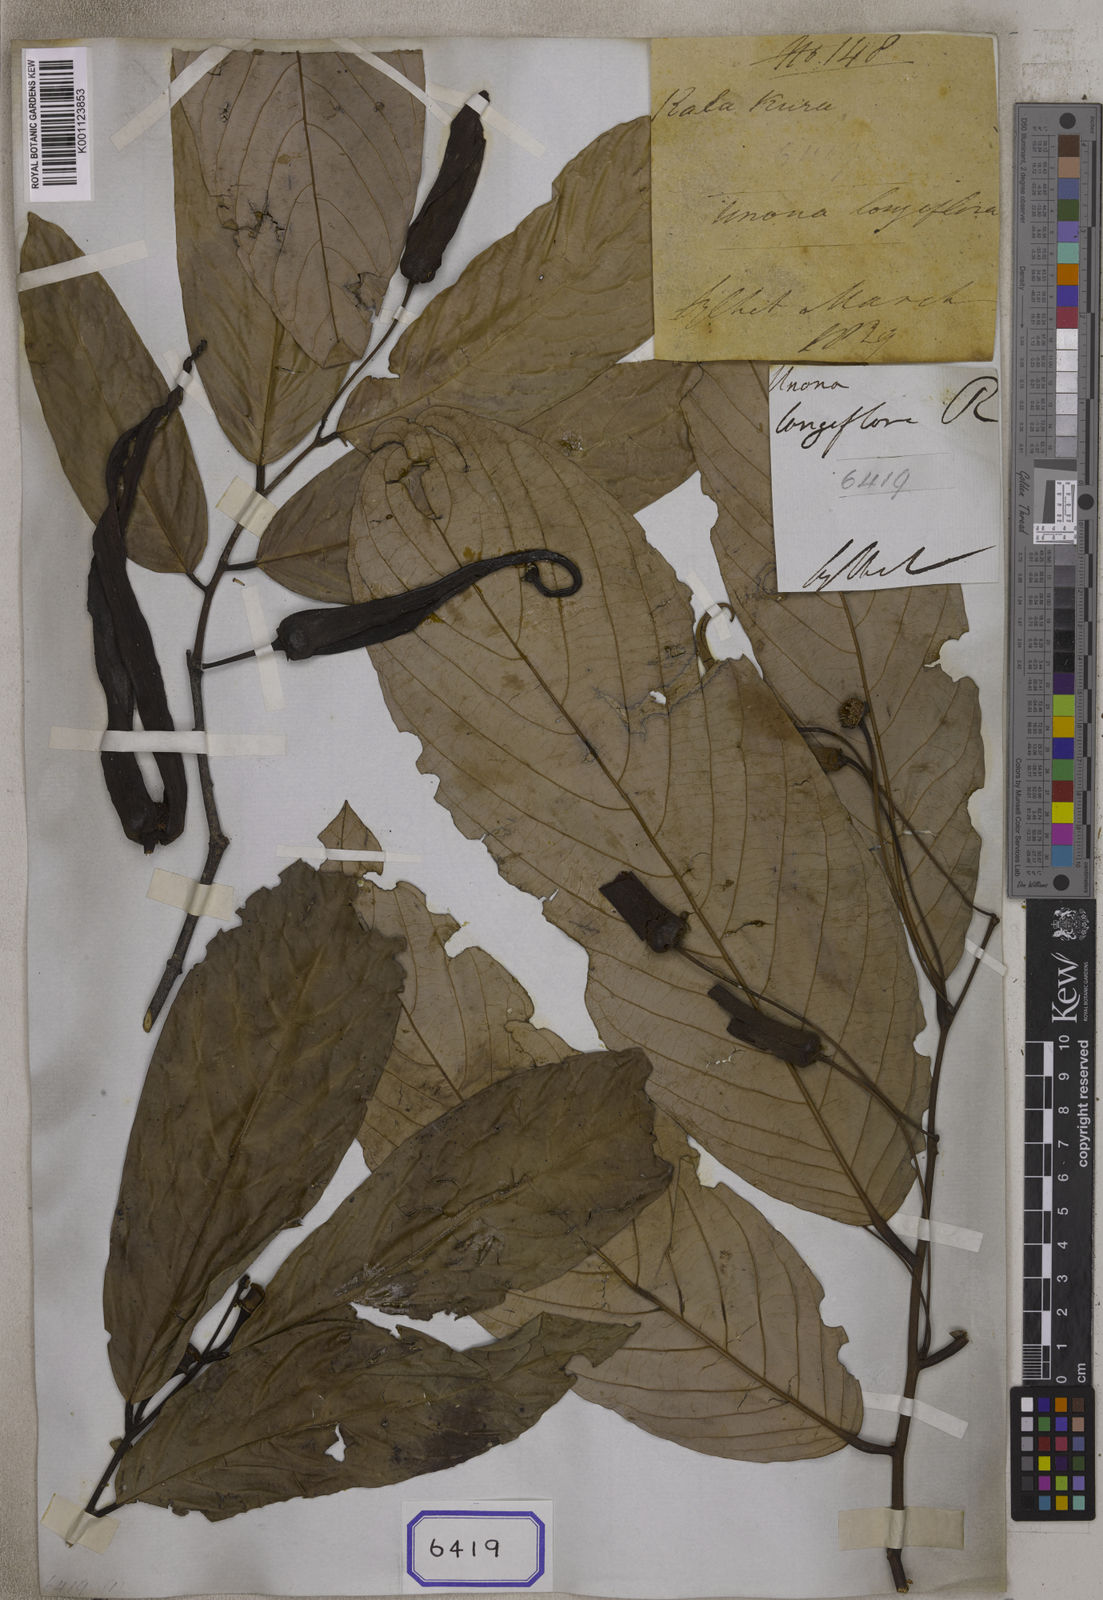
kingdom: Plantae
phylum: Tracheophyta
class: Magnoliopsida
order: Magnoliales
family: Annonaceae
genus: Dasymaschalon
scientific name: Dasymaschalon longiflorum
